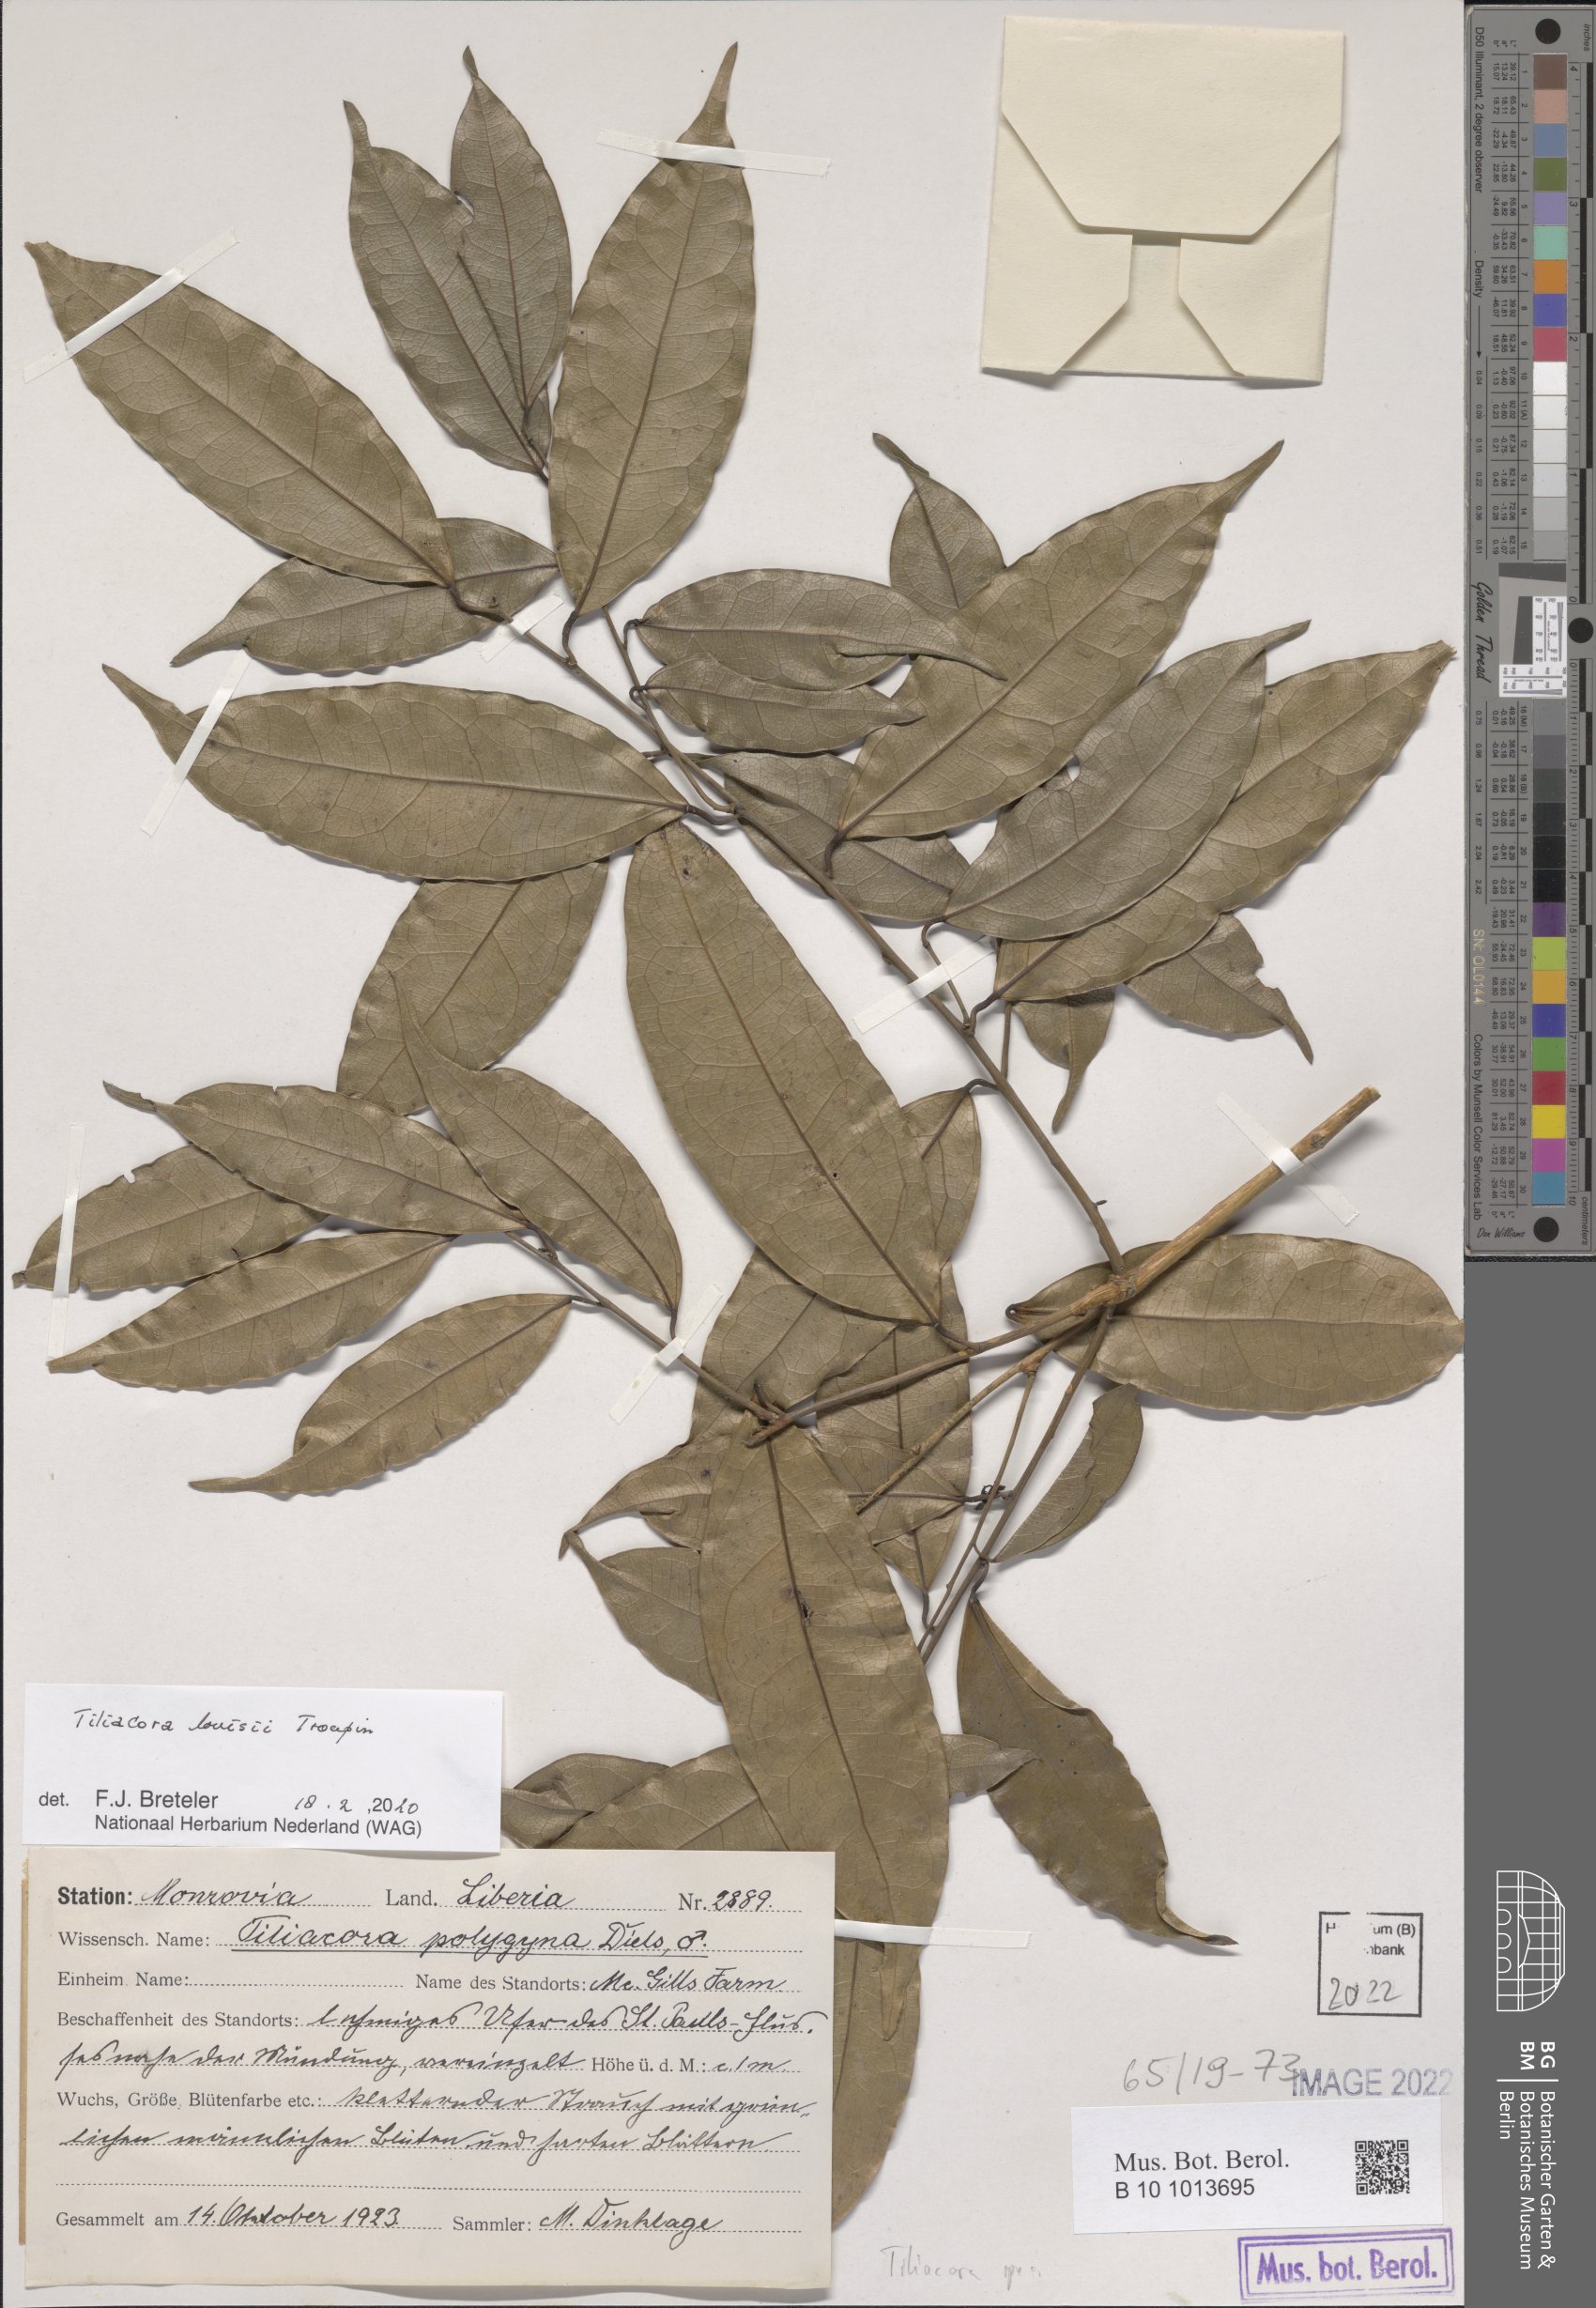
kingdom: Plantae
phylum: Tracheophyta
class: Magnoliopsida
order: Ranunculales
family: Menispermaceae
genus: Tiliacora
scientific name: Tiliacora louisii
